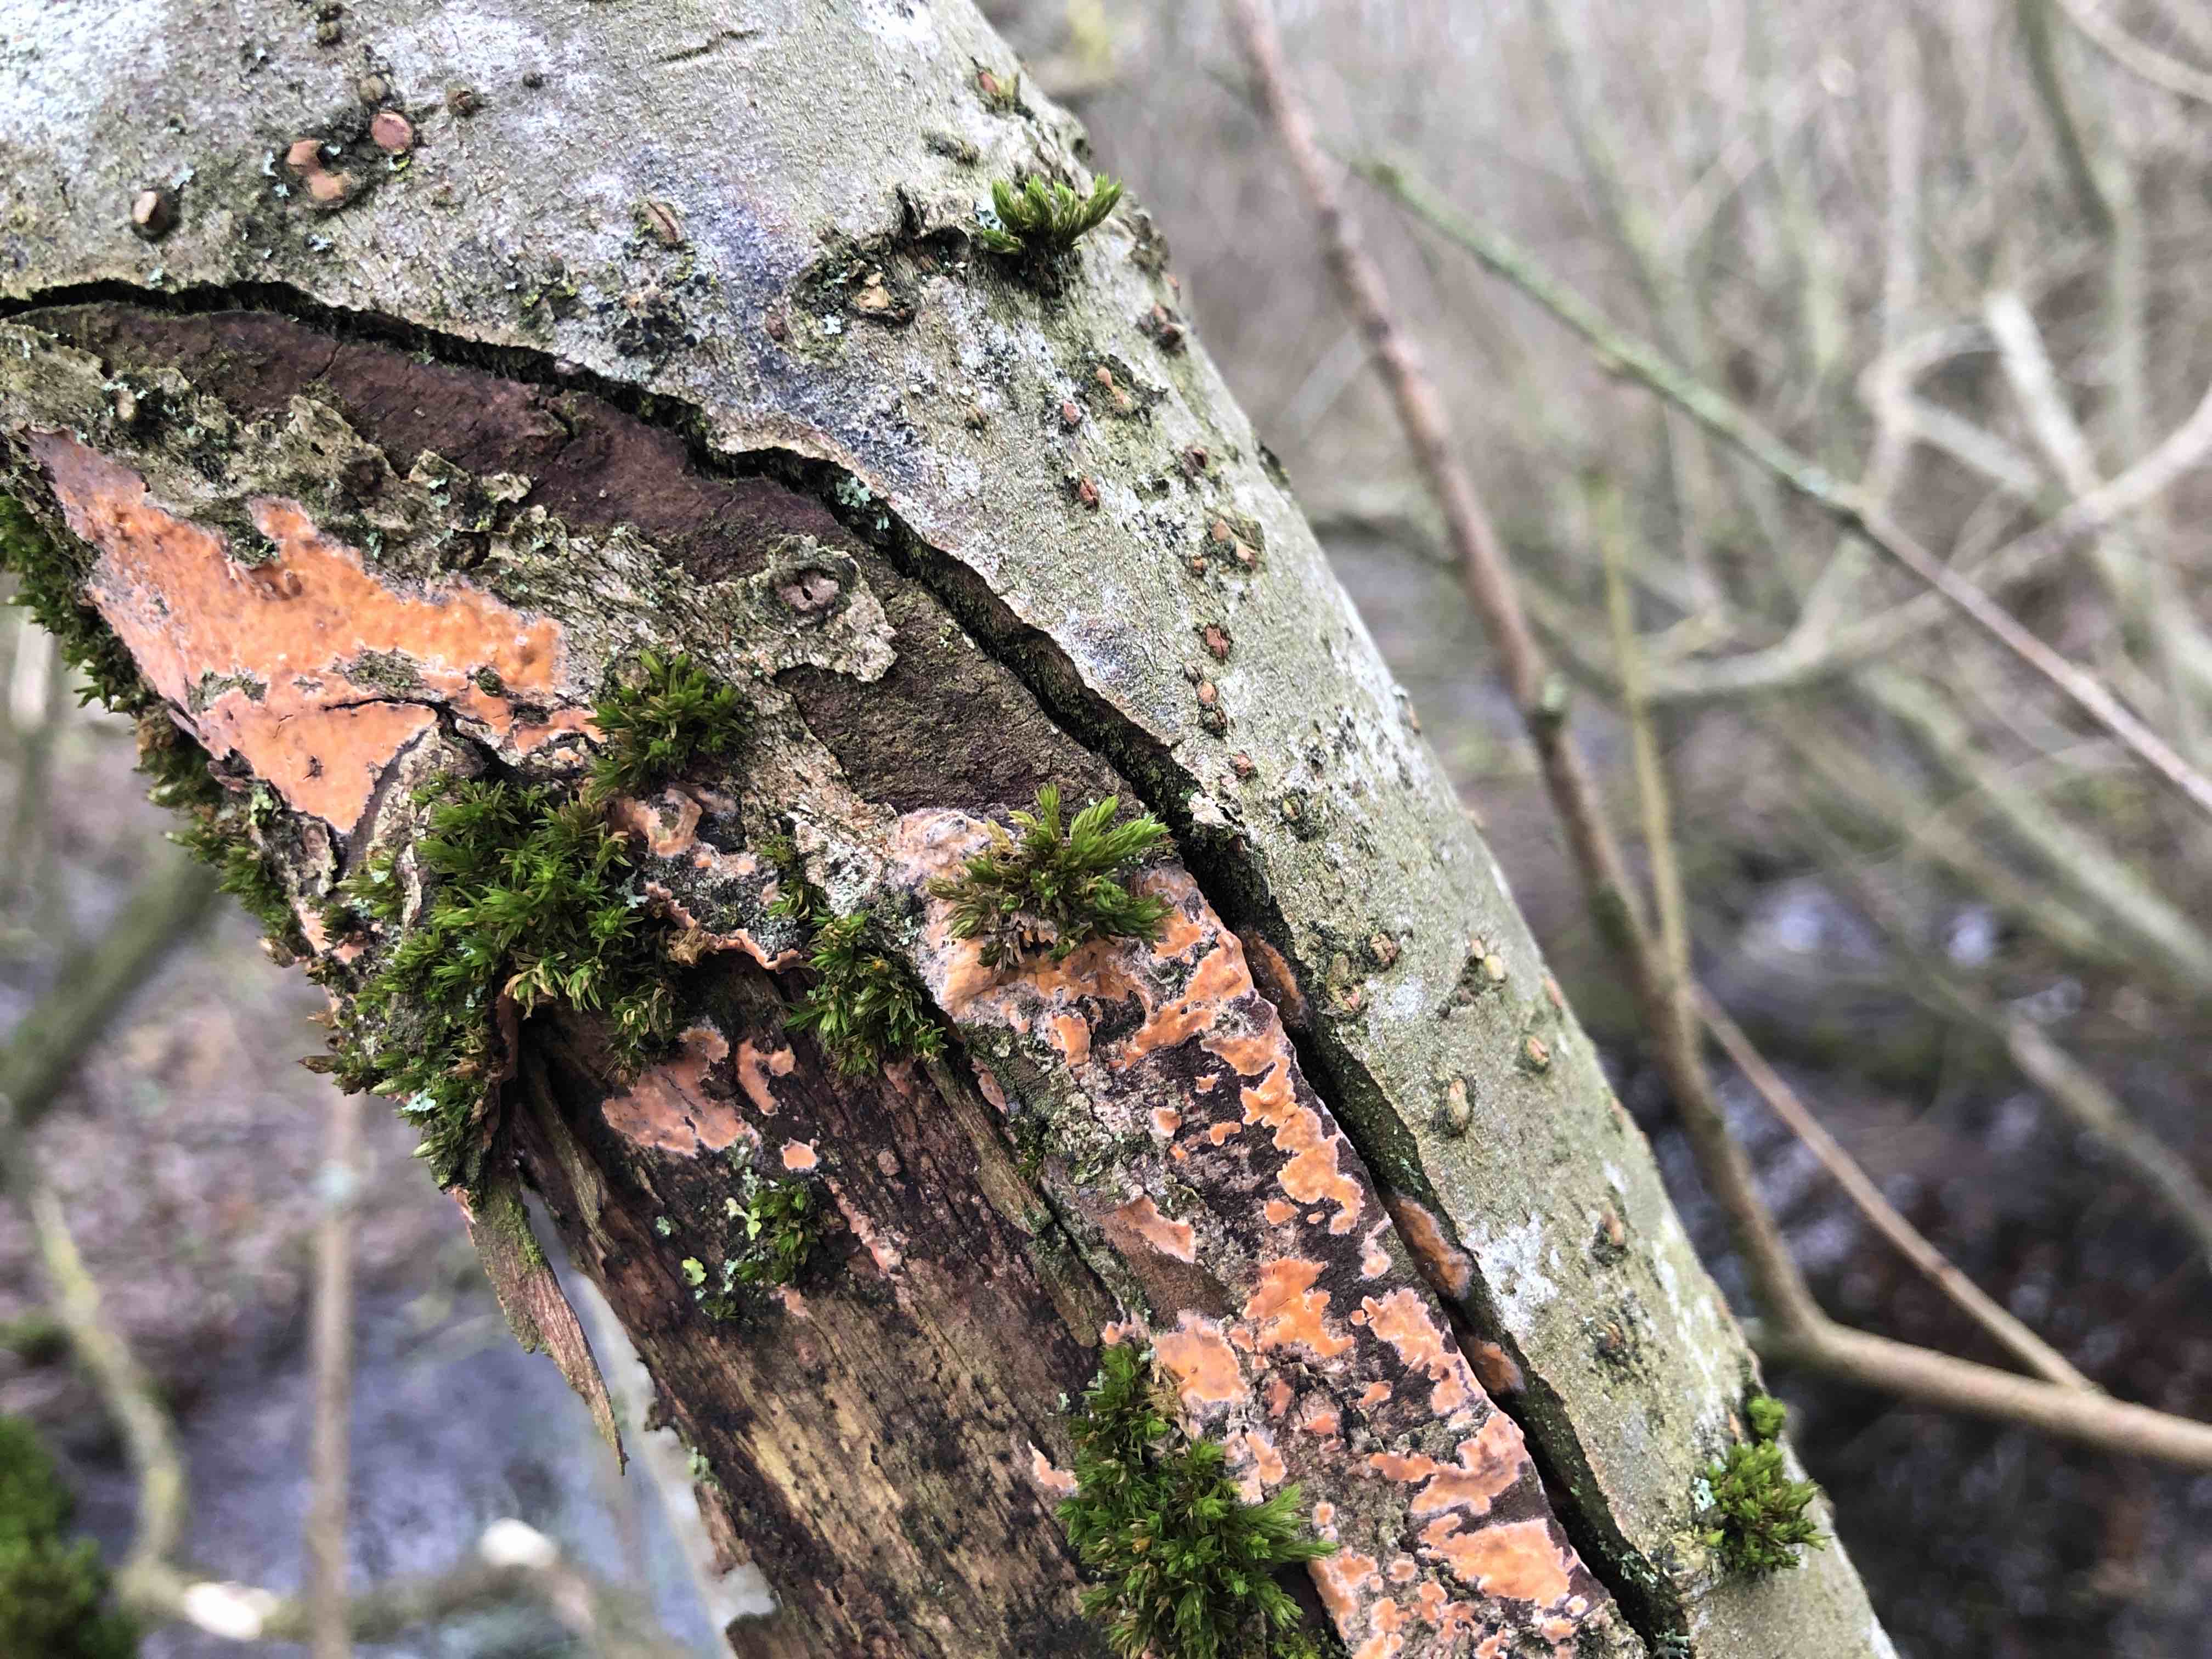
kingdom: Fungi
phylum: Basidiomycota
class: Agaricomycetes
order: Russulales
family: Peniophoraceae
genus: Peniophora
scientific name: Peniophora incarnata
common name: laksefarvet voksskind
